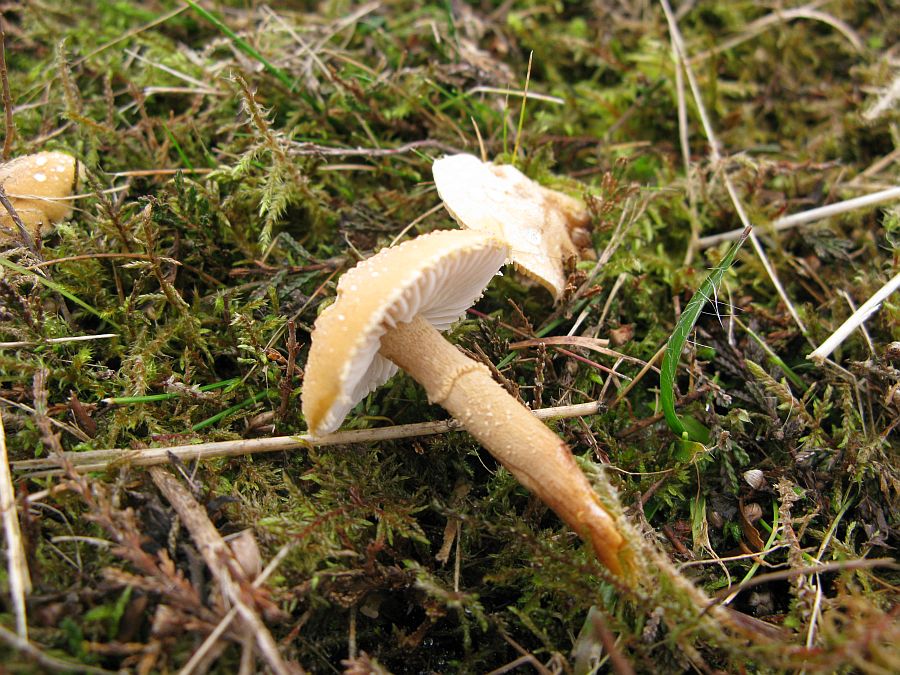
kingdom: Fungi
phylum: Basidiomycota
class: Agaricomycetes
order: Agaricales
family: Tricholomataceae
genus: Cystoderma
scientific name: Cystoderma amianthinum
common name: okkergul grynhat
